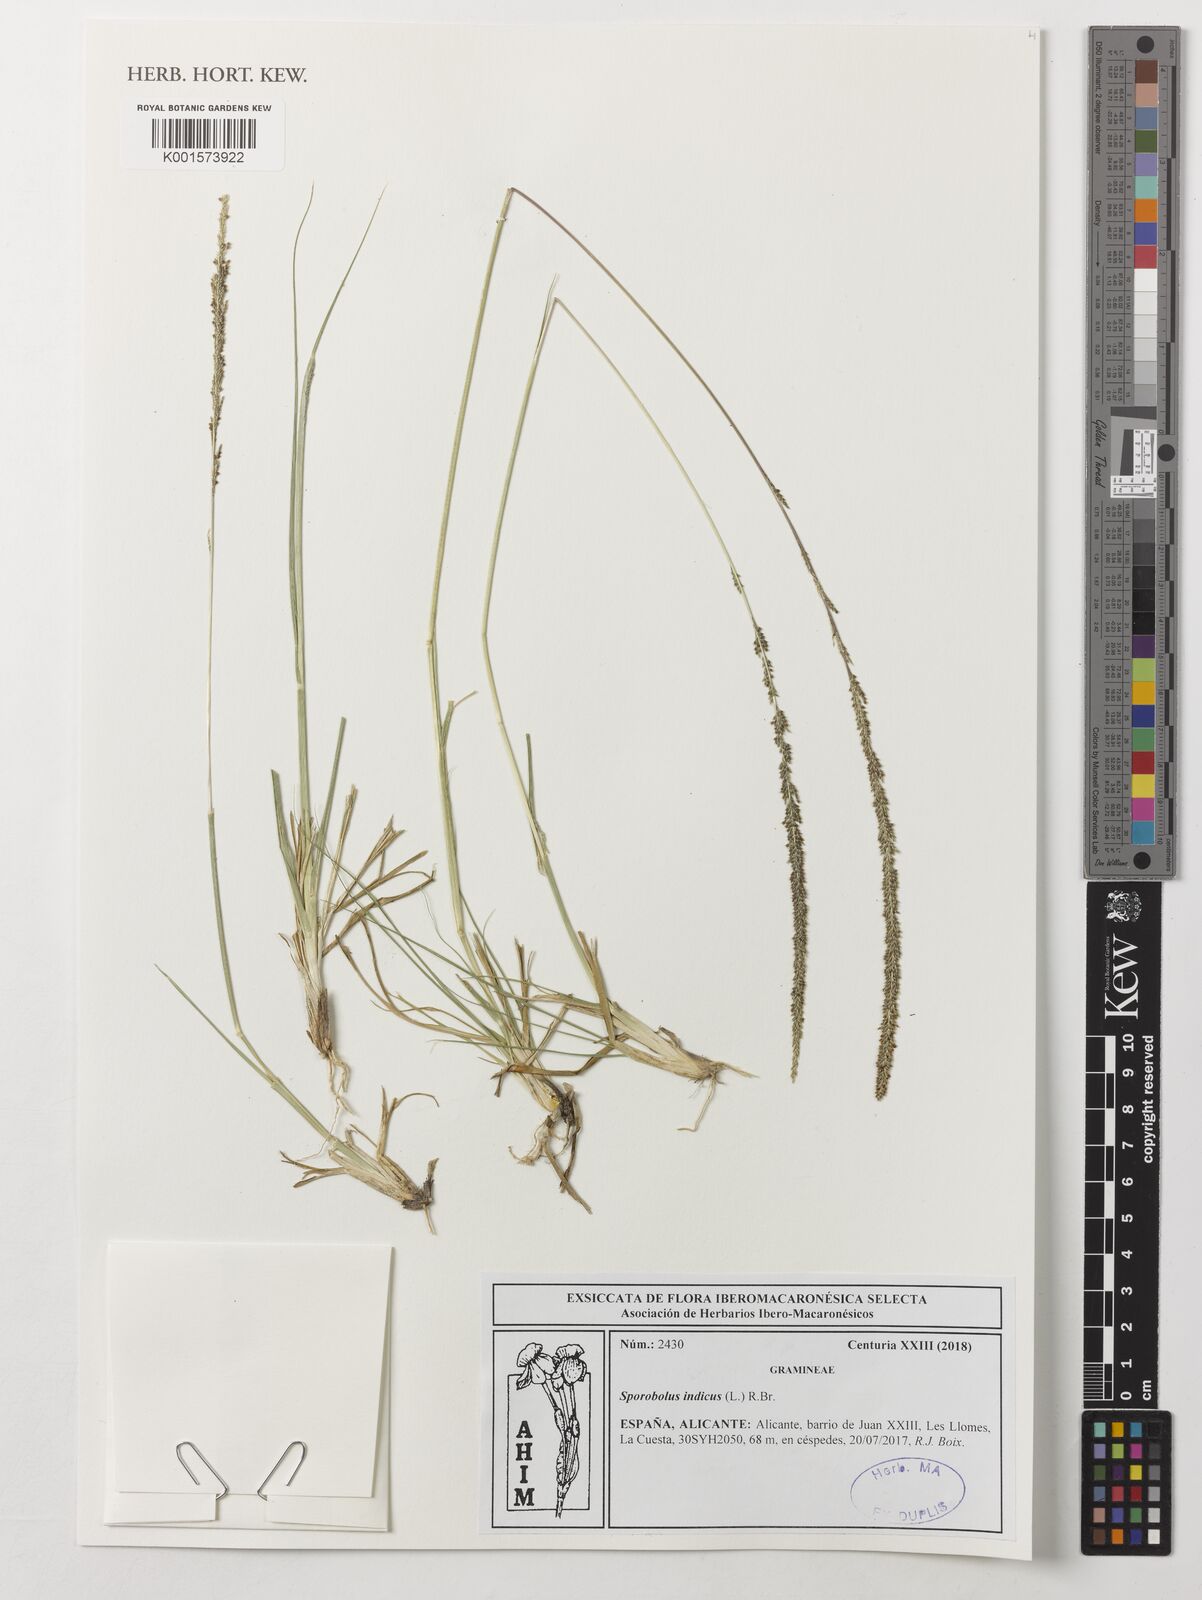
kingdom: Plantae
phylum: Tracheophyta
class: Liliopsida
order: Poales
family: Poaceae
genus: Sporobolus
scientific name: Sporobolus indicus
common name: Smut grass
